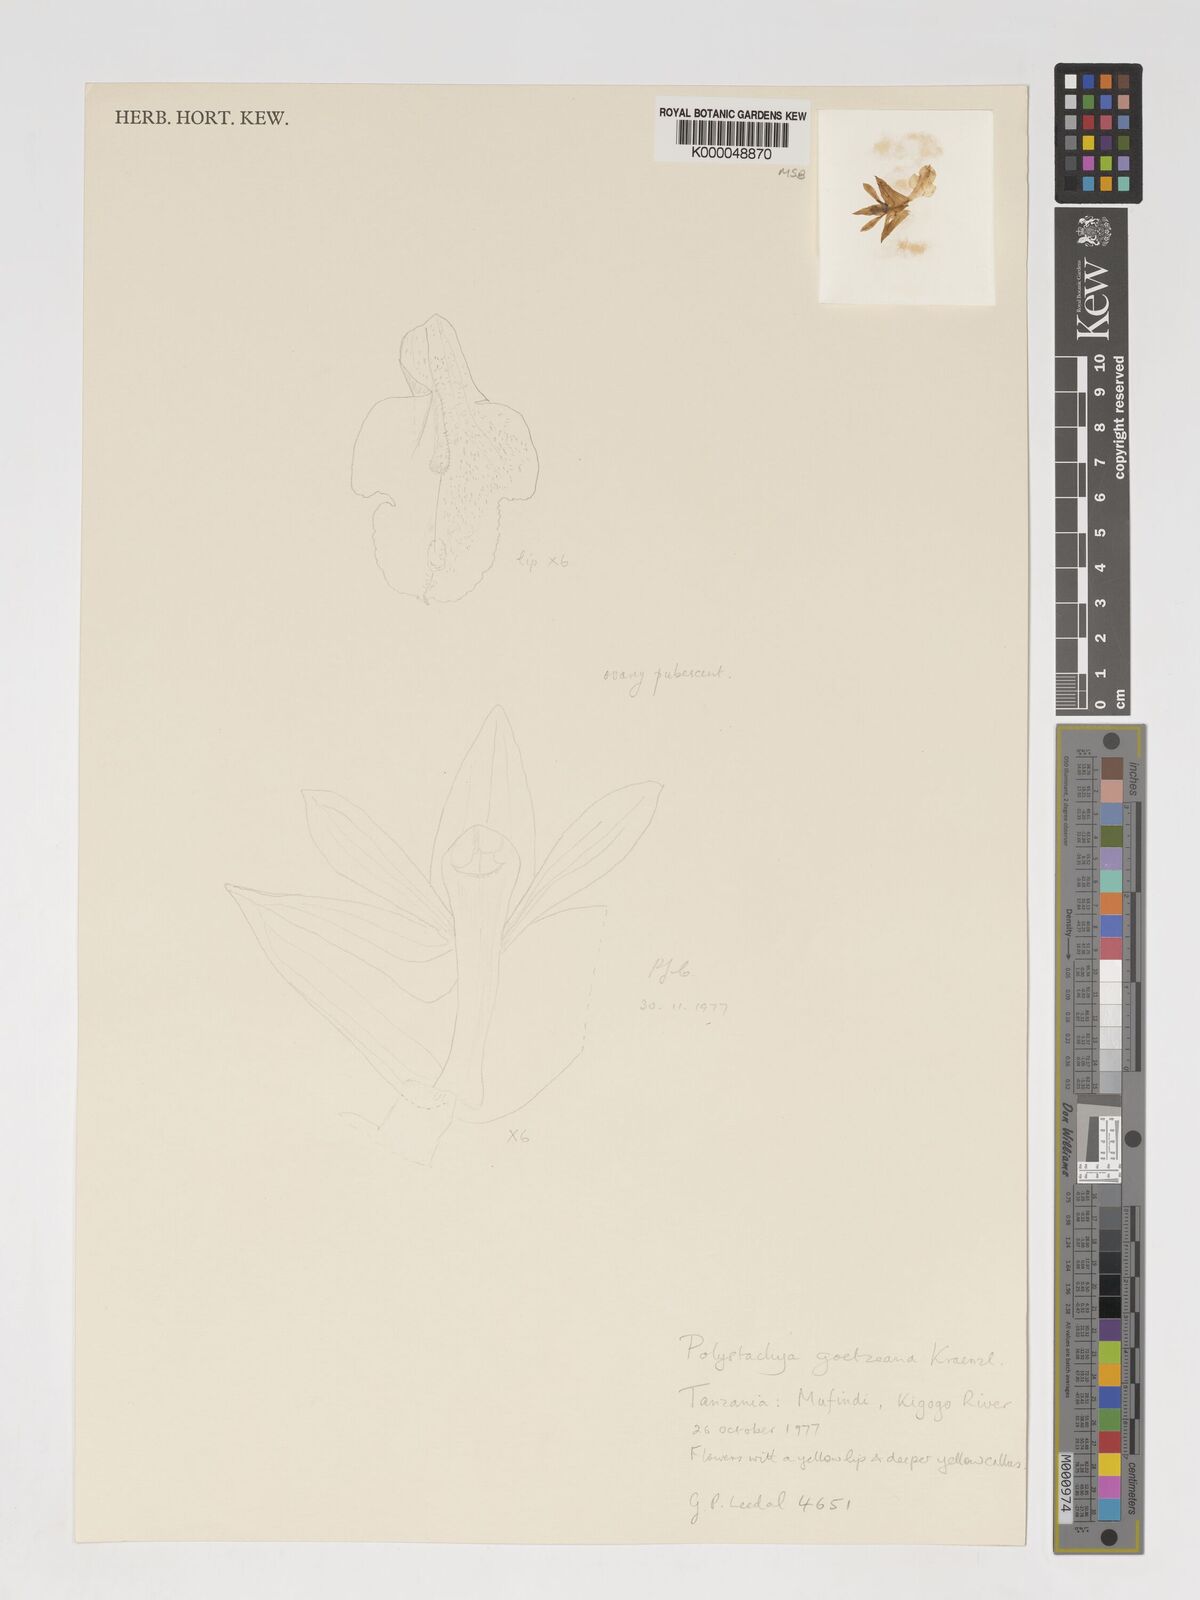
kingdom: Plantae
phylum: Tracheophyta
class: Liliopsida
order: Asparagales
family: Orchidaceae
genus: Polystachya
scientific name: Polystachya goetzeana
